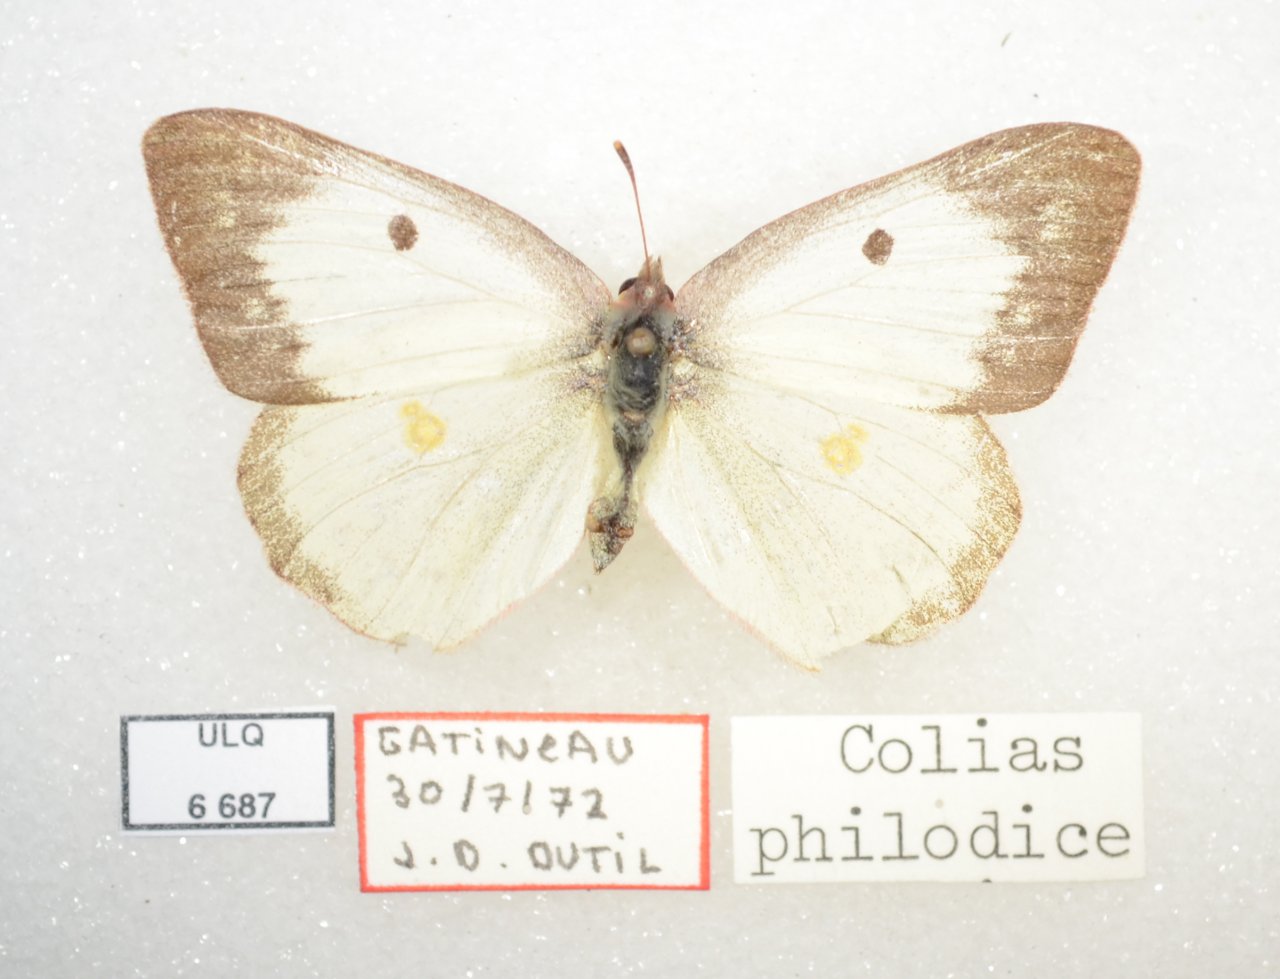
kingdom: Animalia
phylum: Arthropoda
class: Insecta
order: Lepidoptera
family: Pieridae
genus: Colias
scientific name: Colias philodice
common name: Clouded Sulphur
